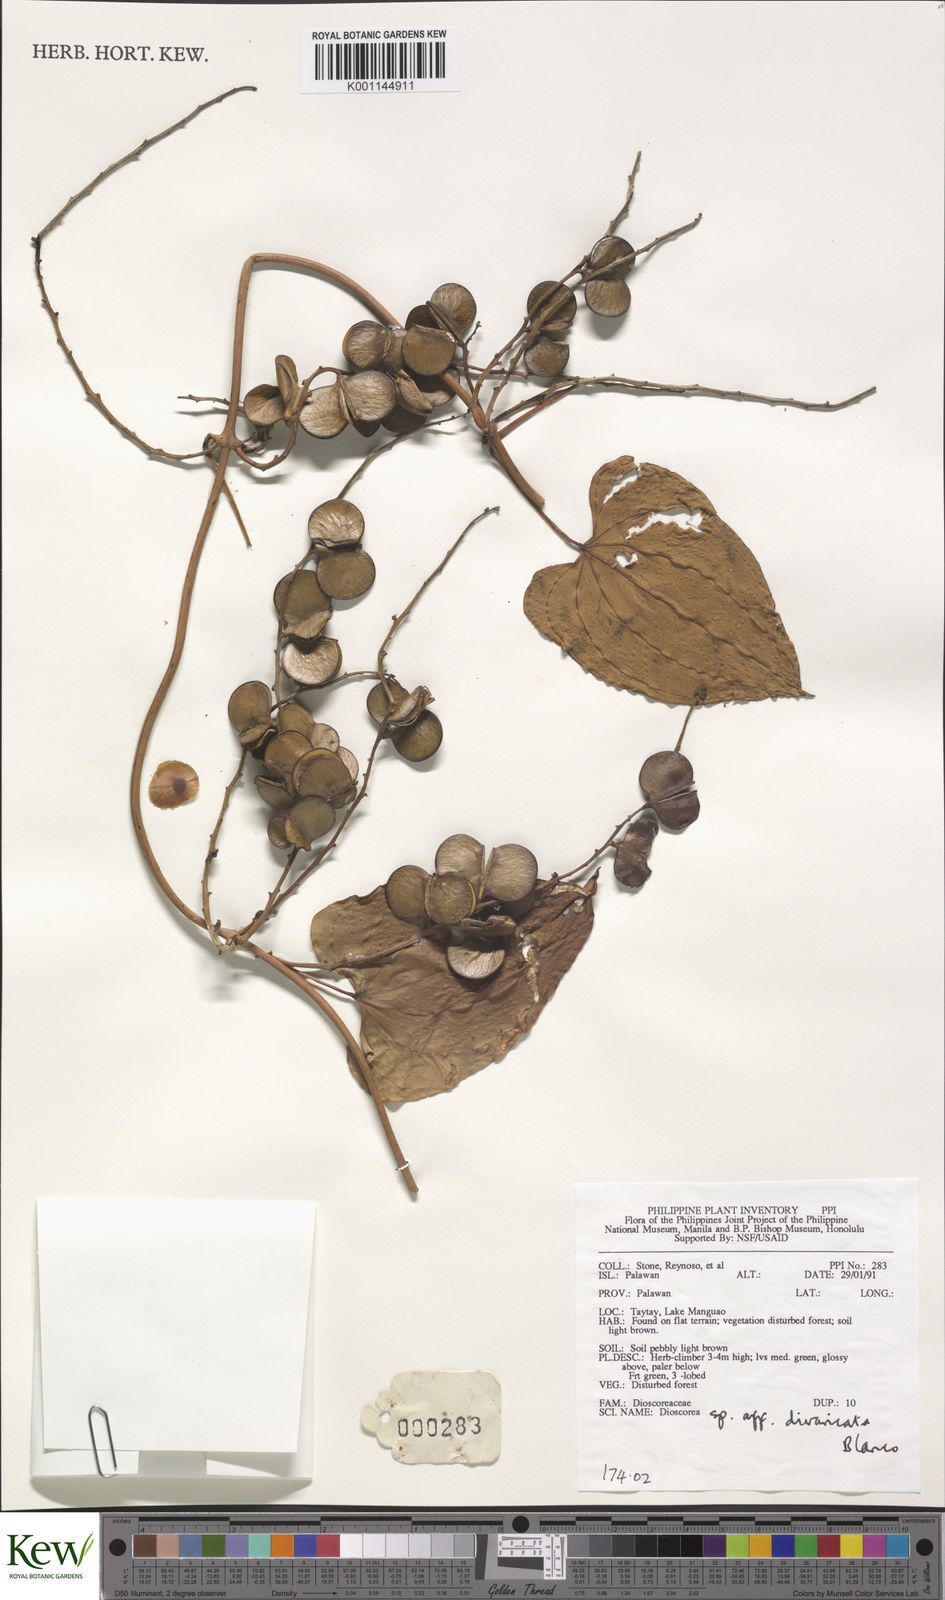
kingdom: Plantae
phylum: Tracheophyta
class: Liliopsida
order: Dioscoreales
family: Dioscoreaceae
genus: Dioscorea
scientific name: Dioscorea divaricata
